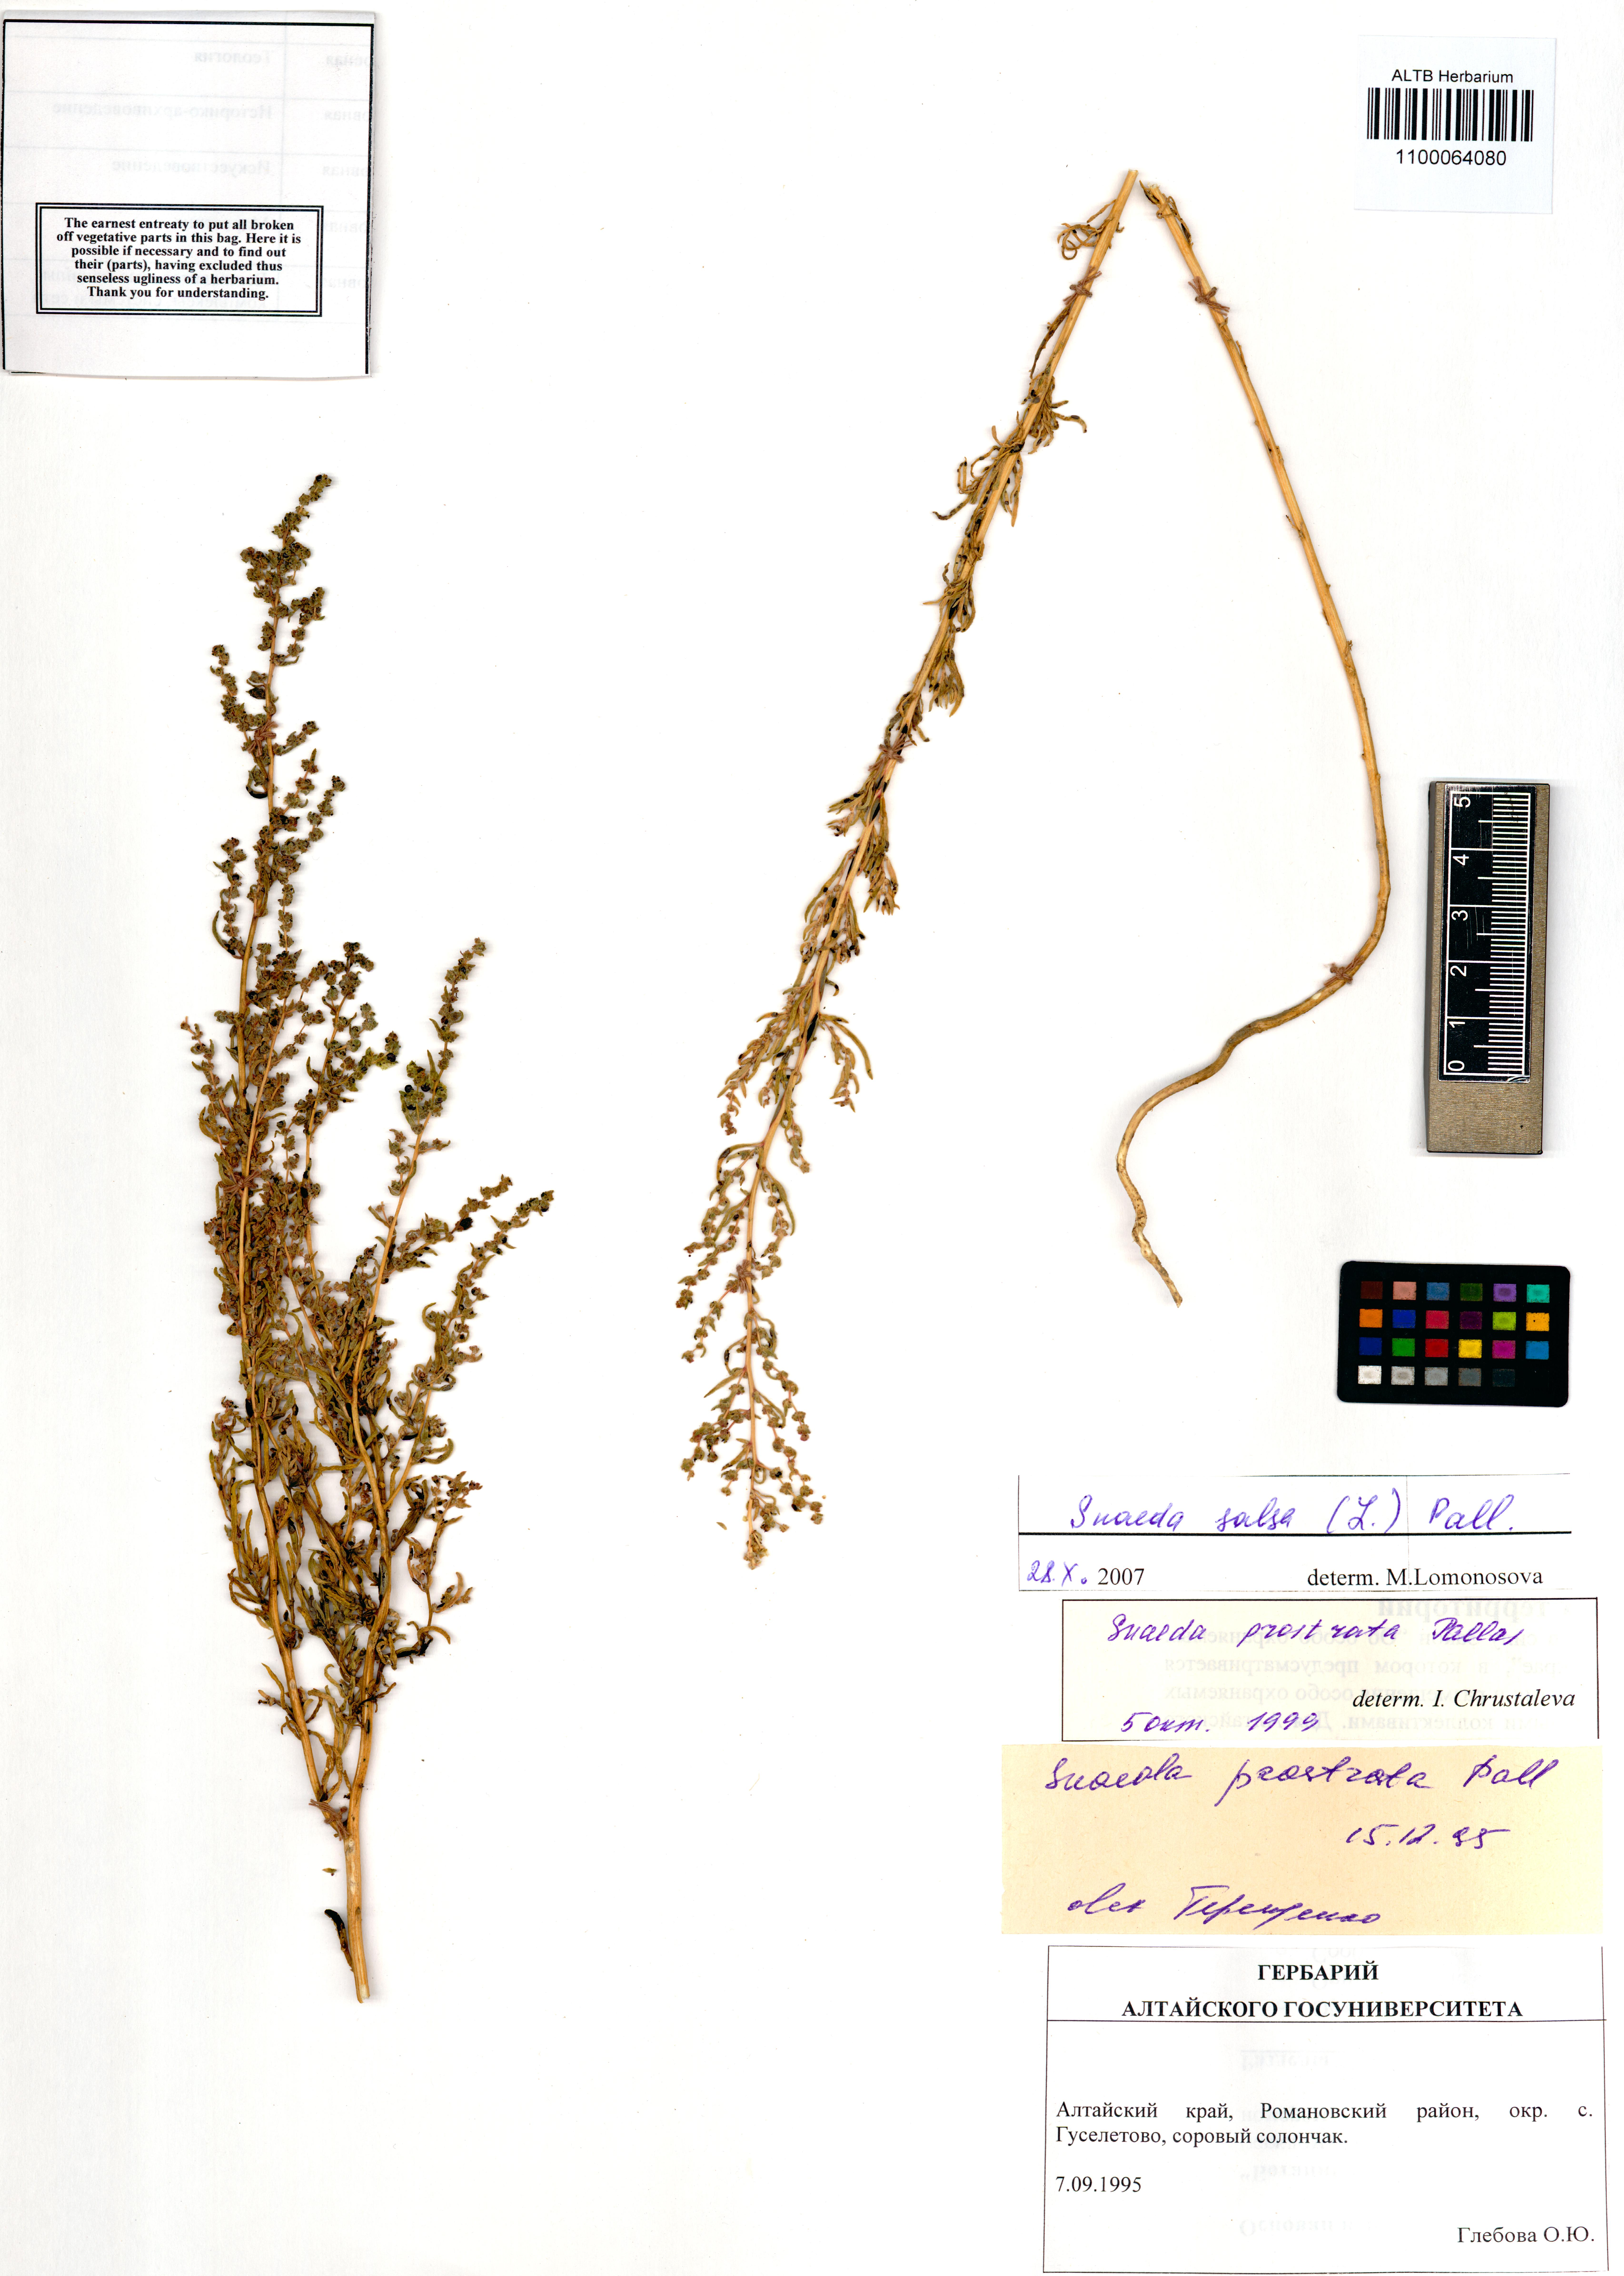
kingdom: Plantae
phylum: Tracheophyta
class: Magnoliopsida
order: Caryophyllales
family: Amaranthaceae
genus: Suaeda
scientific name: Suaeda salsa
